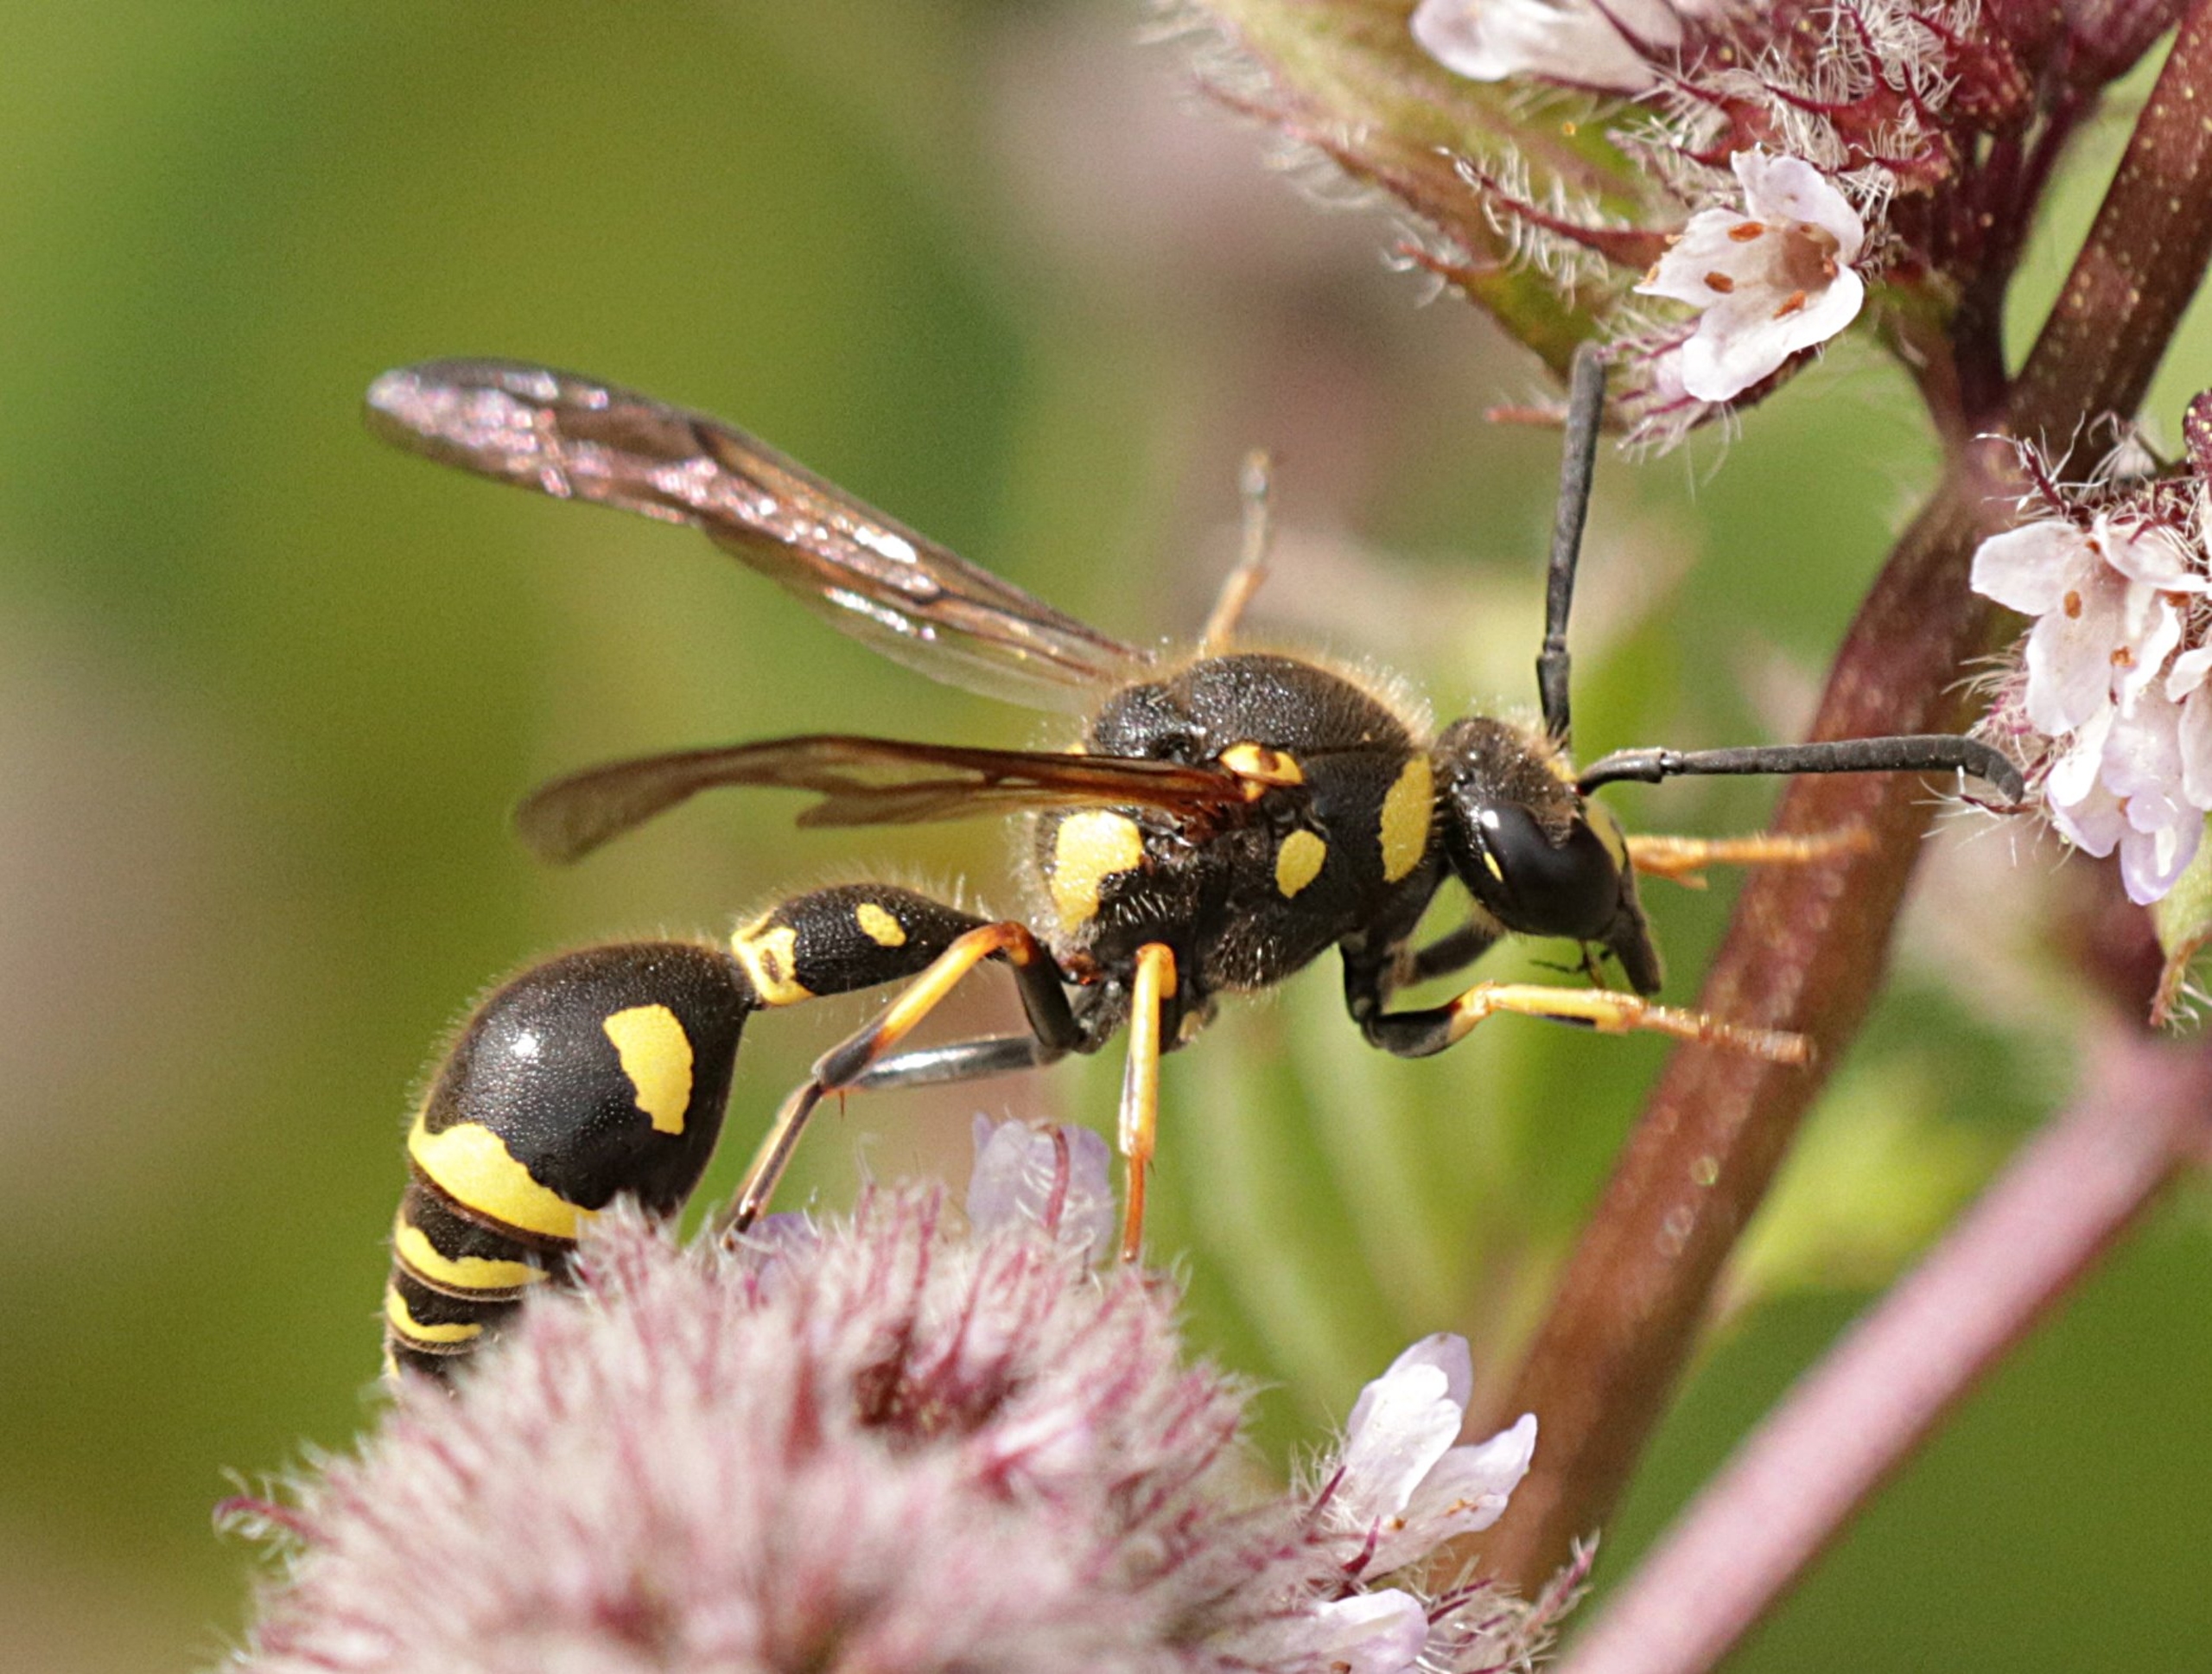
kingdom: Animalia
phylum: Arthropoda
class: Insecta
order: Hymenoptera
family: Vespidae
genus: Eumenes
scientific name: Eumenes papillarius
